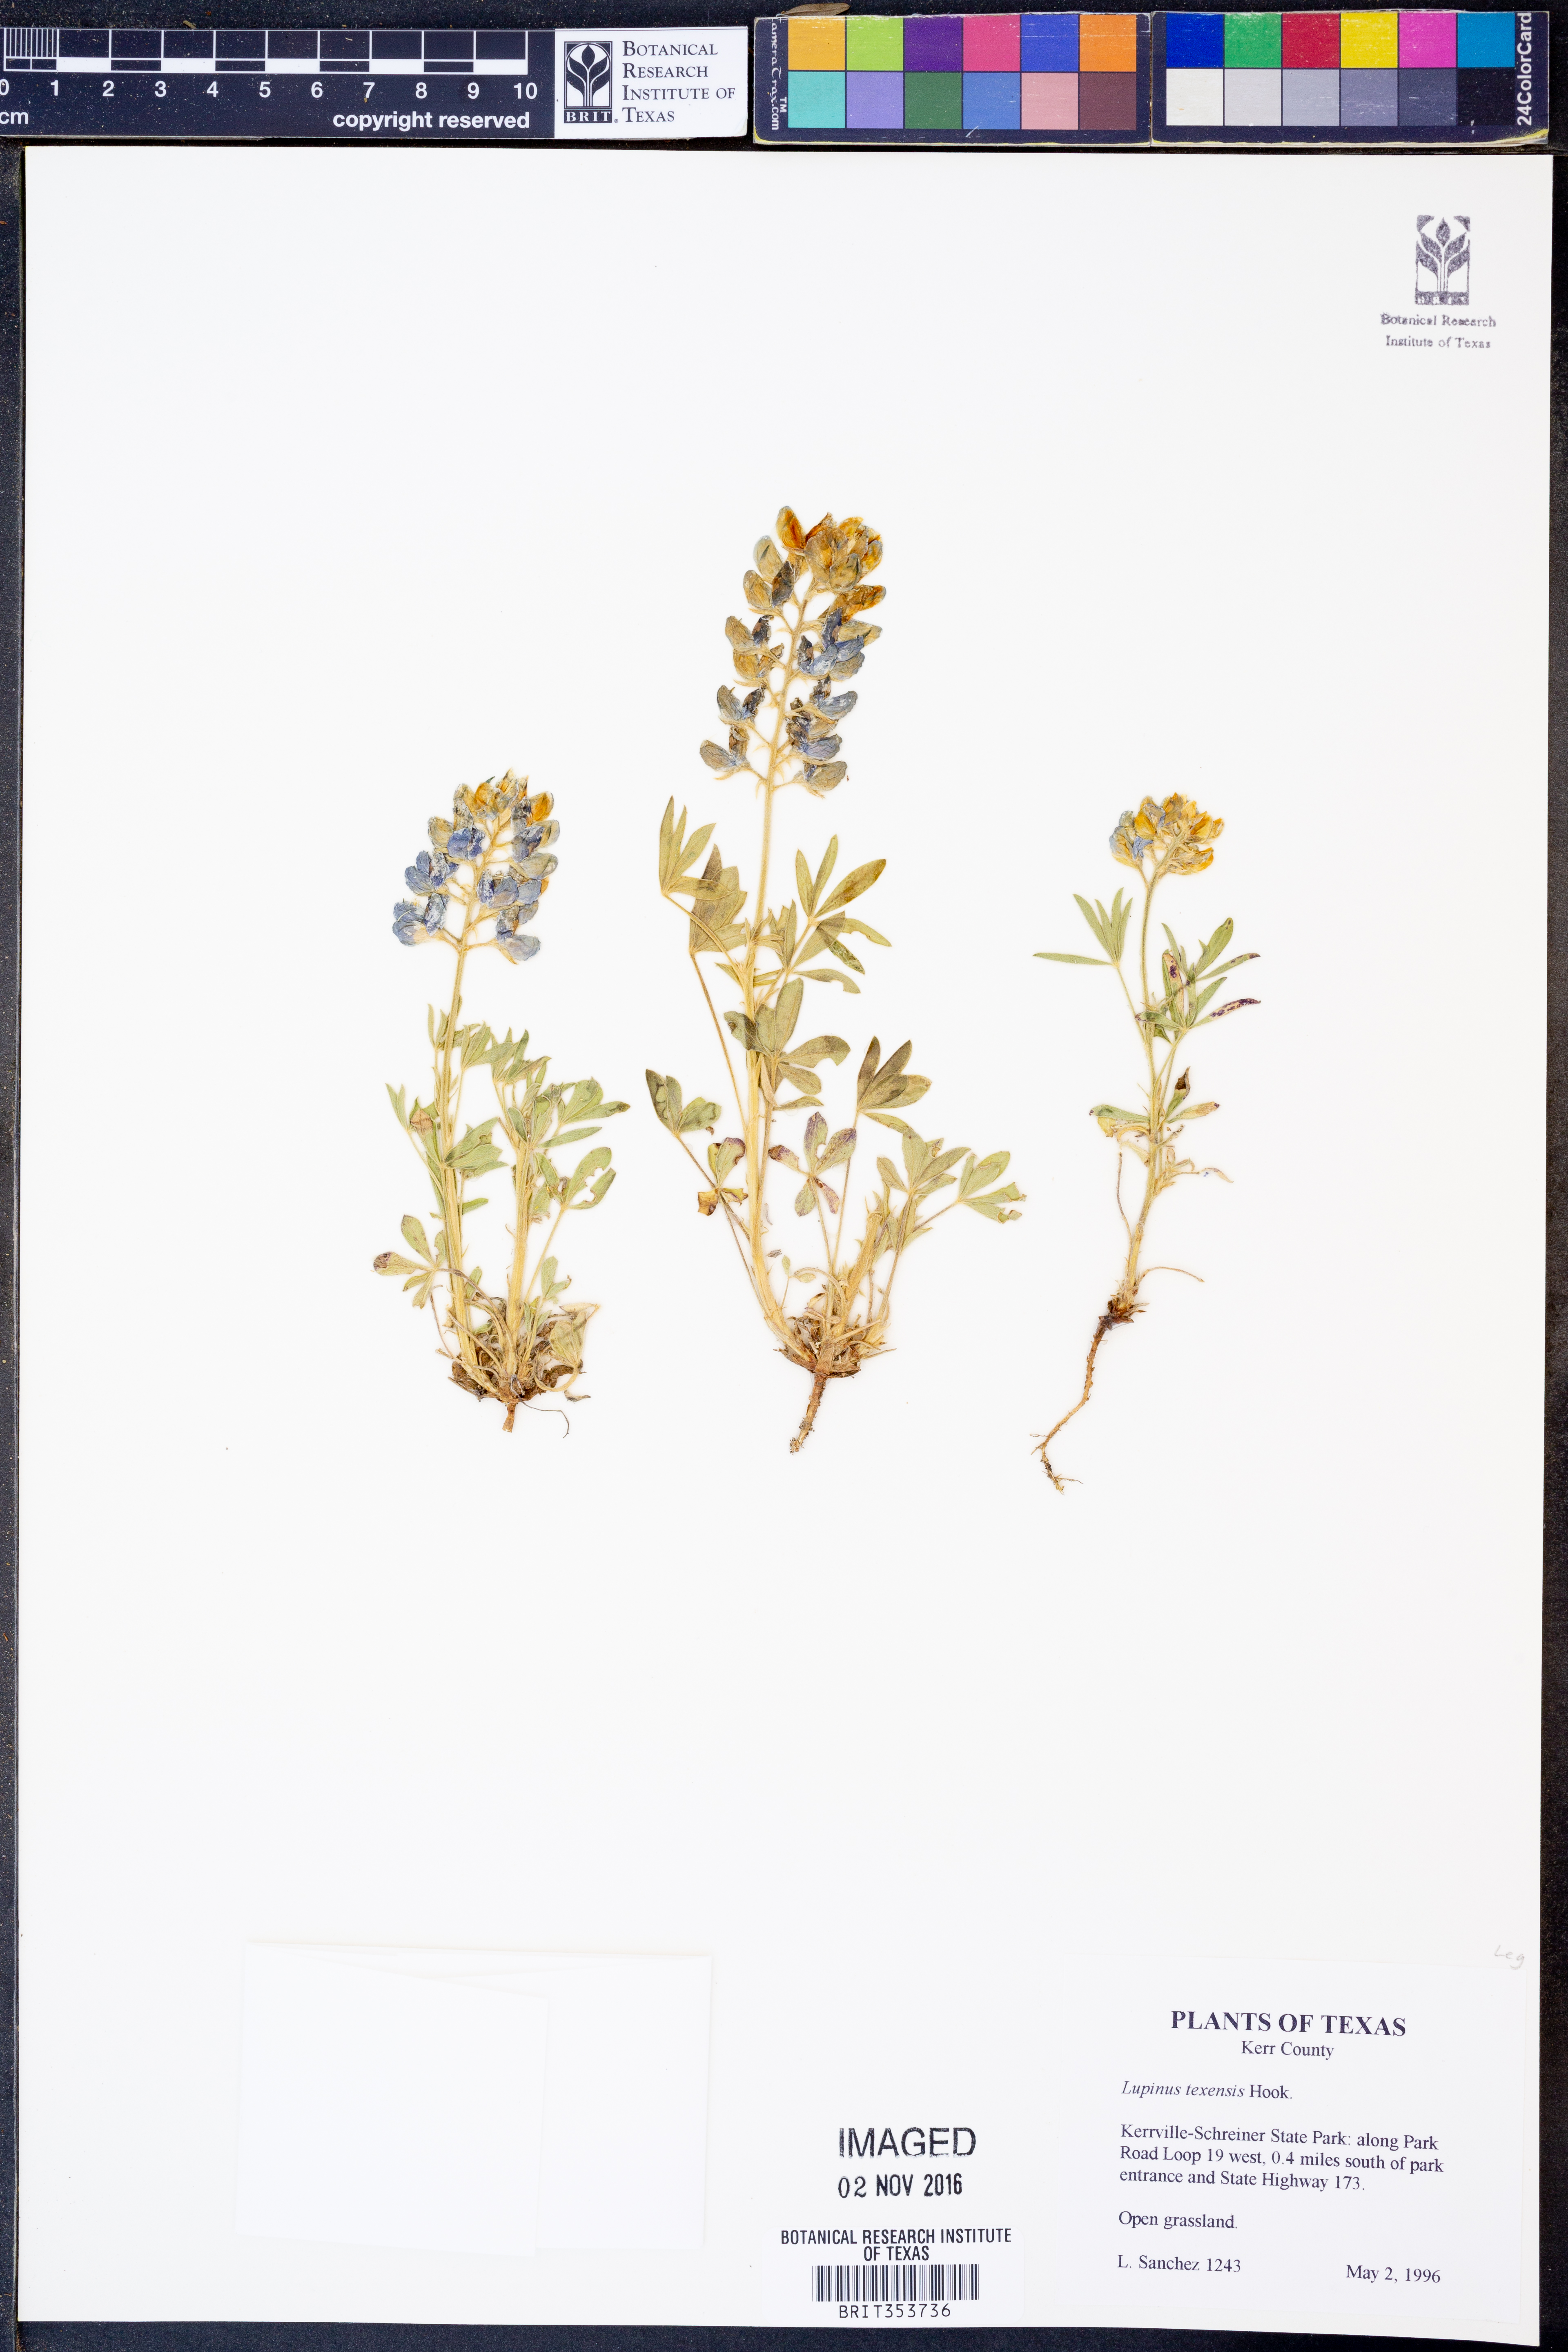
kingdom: Plantae
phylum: Tracheophyta
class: Magnoliopsida
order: Fabales
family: Fabaceae
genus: Lupinus
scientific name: Lupinus texensis
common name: Texas bluebonnet
